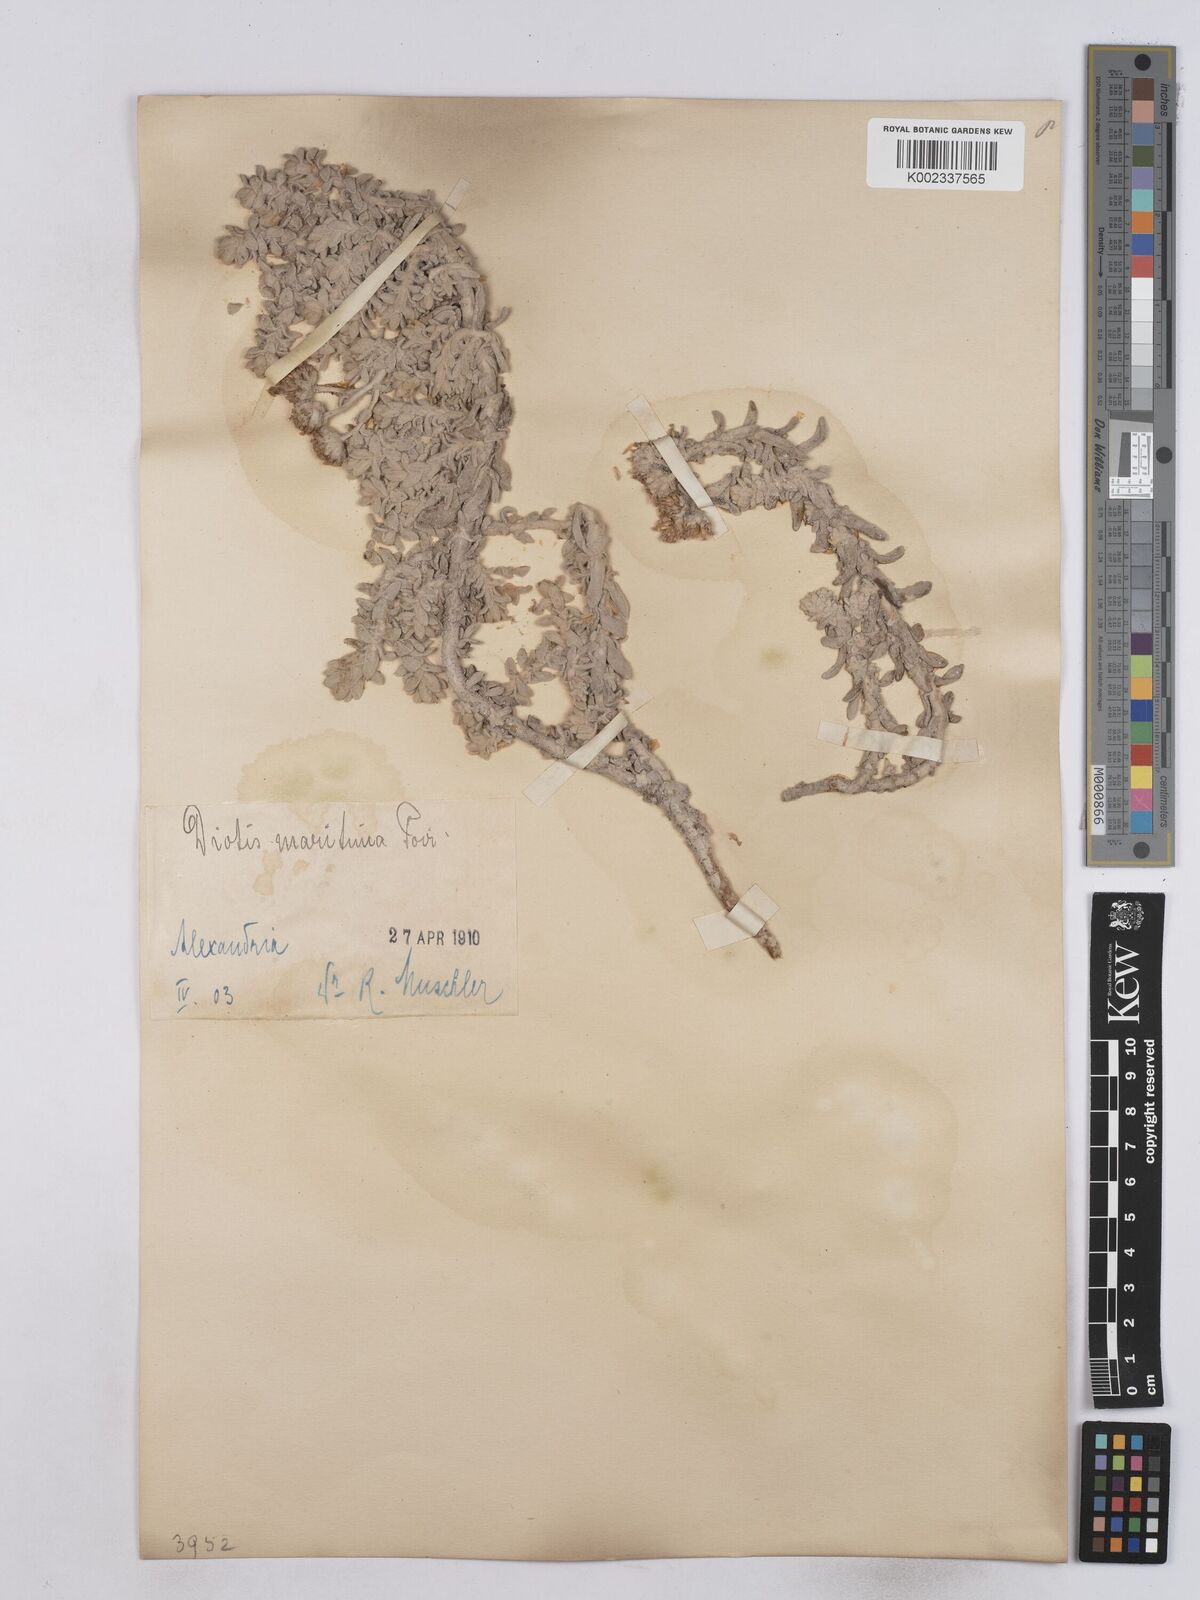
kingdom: Plantae
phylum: Tracheophyta
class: Magnoliopsida
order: Asterales
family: Asteraceae
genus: Achillea
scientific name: Achillea maritima
